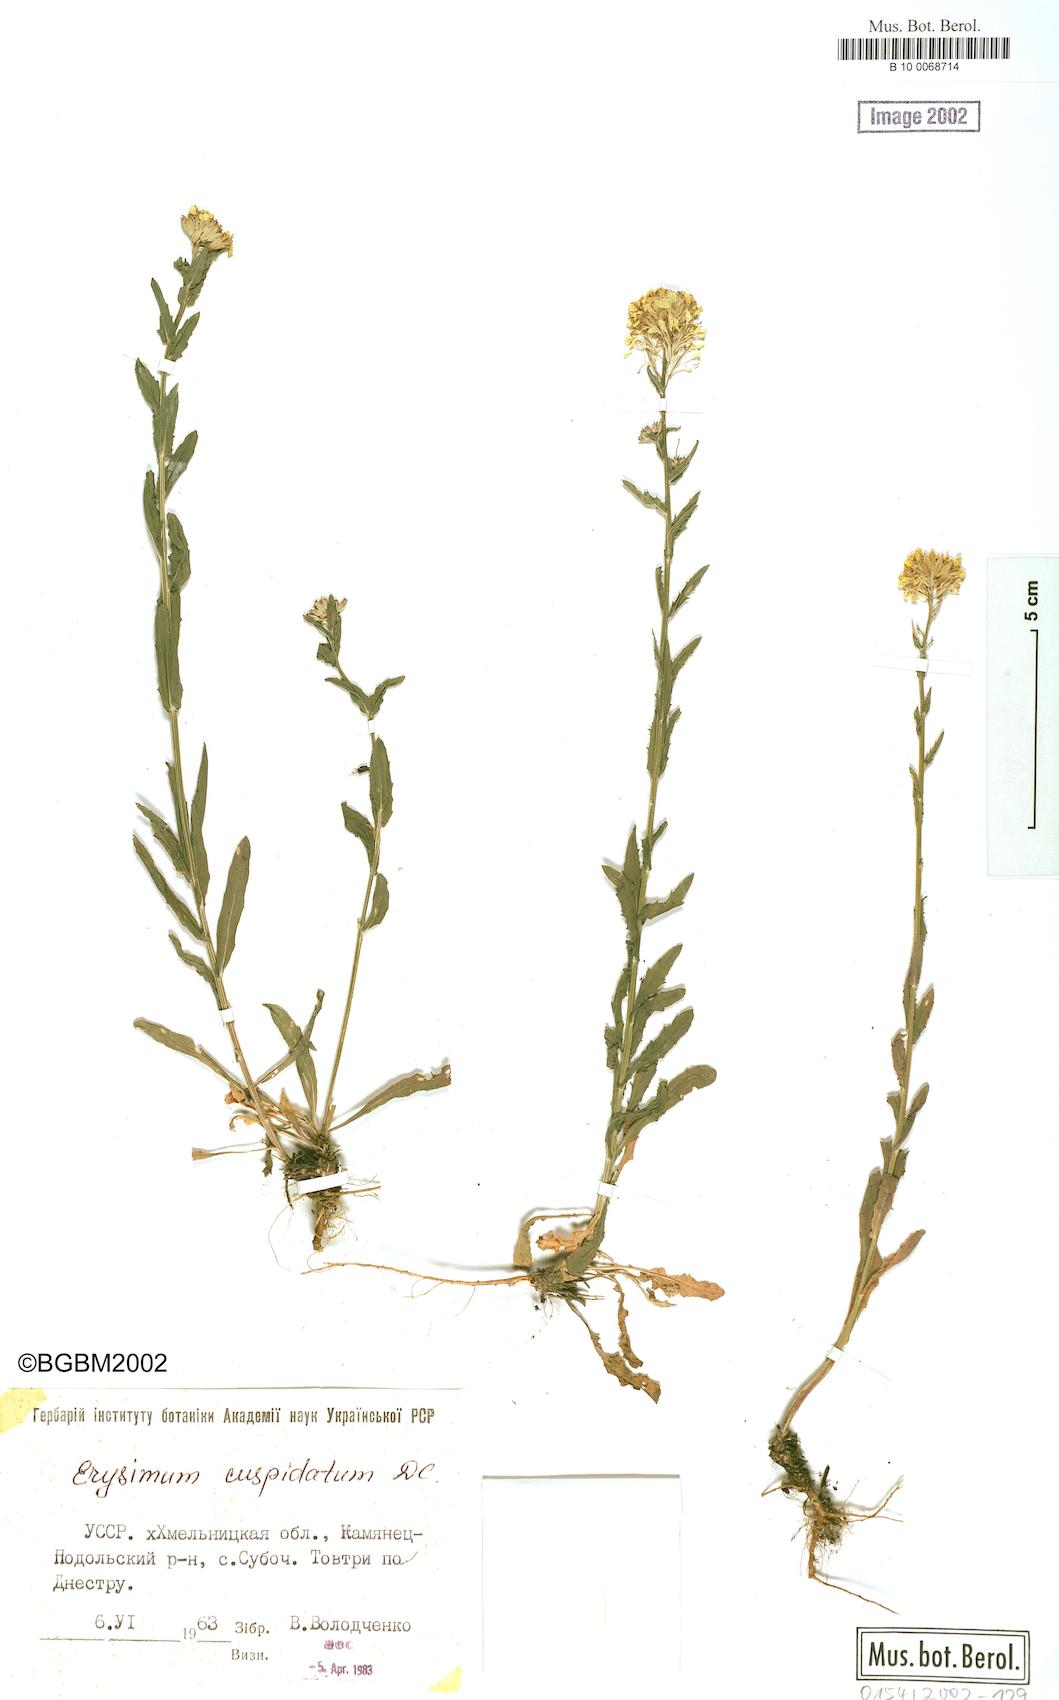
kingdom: Plantae
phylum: Tracheophyta
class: Magnoliopsida
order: Brassicales
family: Brassicaceae
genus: Erysimum
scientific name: Erysimum cuspidatum
